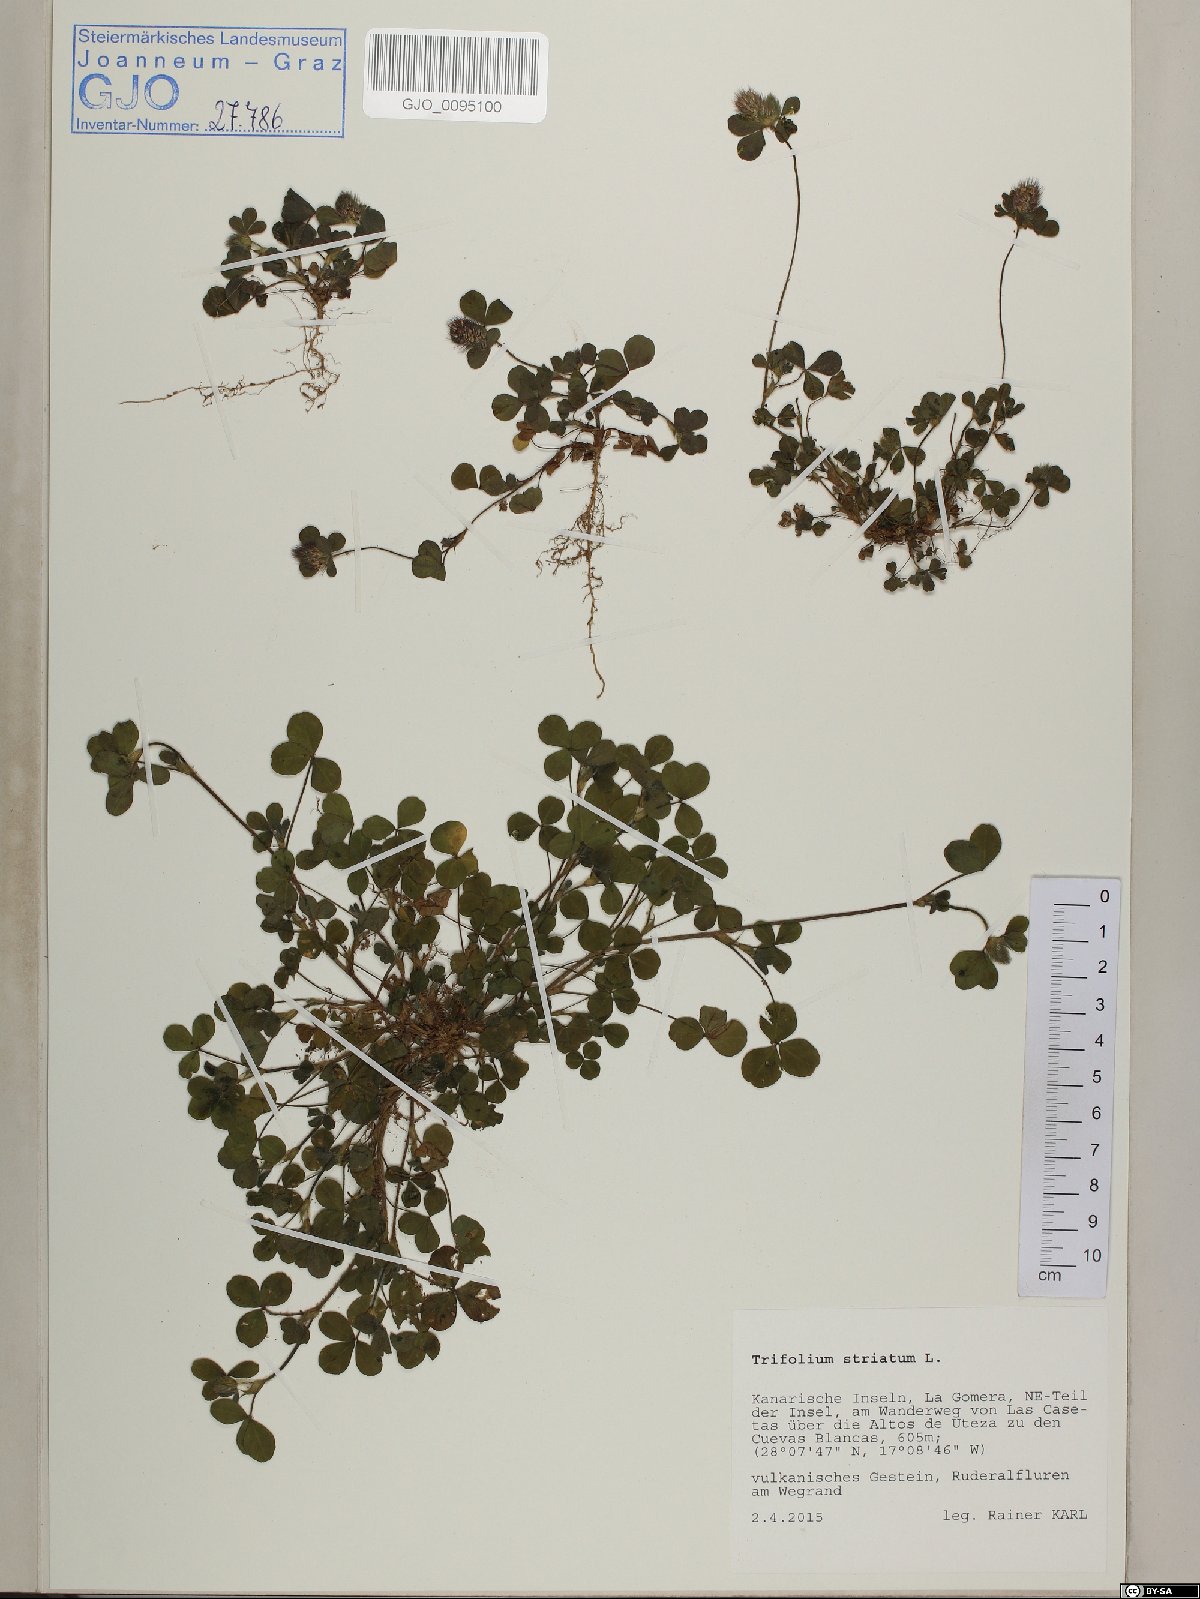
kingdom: Plantae
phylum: Tracheophyta
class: Magnoliopsida
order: Fabales
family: Fabaceae
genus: Trifolium
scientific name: Trifolium striatum
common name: Knotted clover
